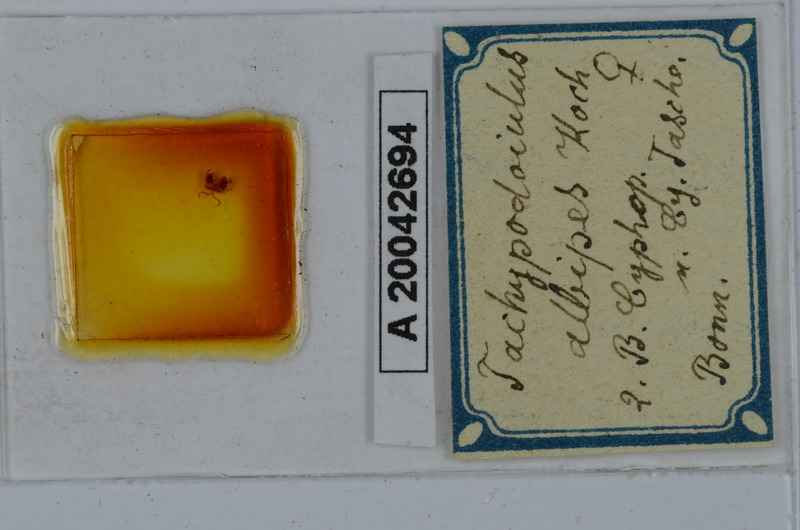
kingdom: Animalia
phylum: Arthropoda
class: Diplopoda
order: Julida
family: Julidae
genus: Tachypodoiulus
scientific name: Tachypodoiulus niger
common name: White-legged snake millipede
